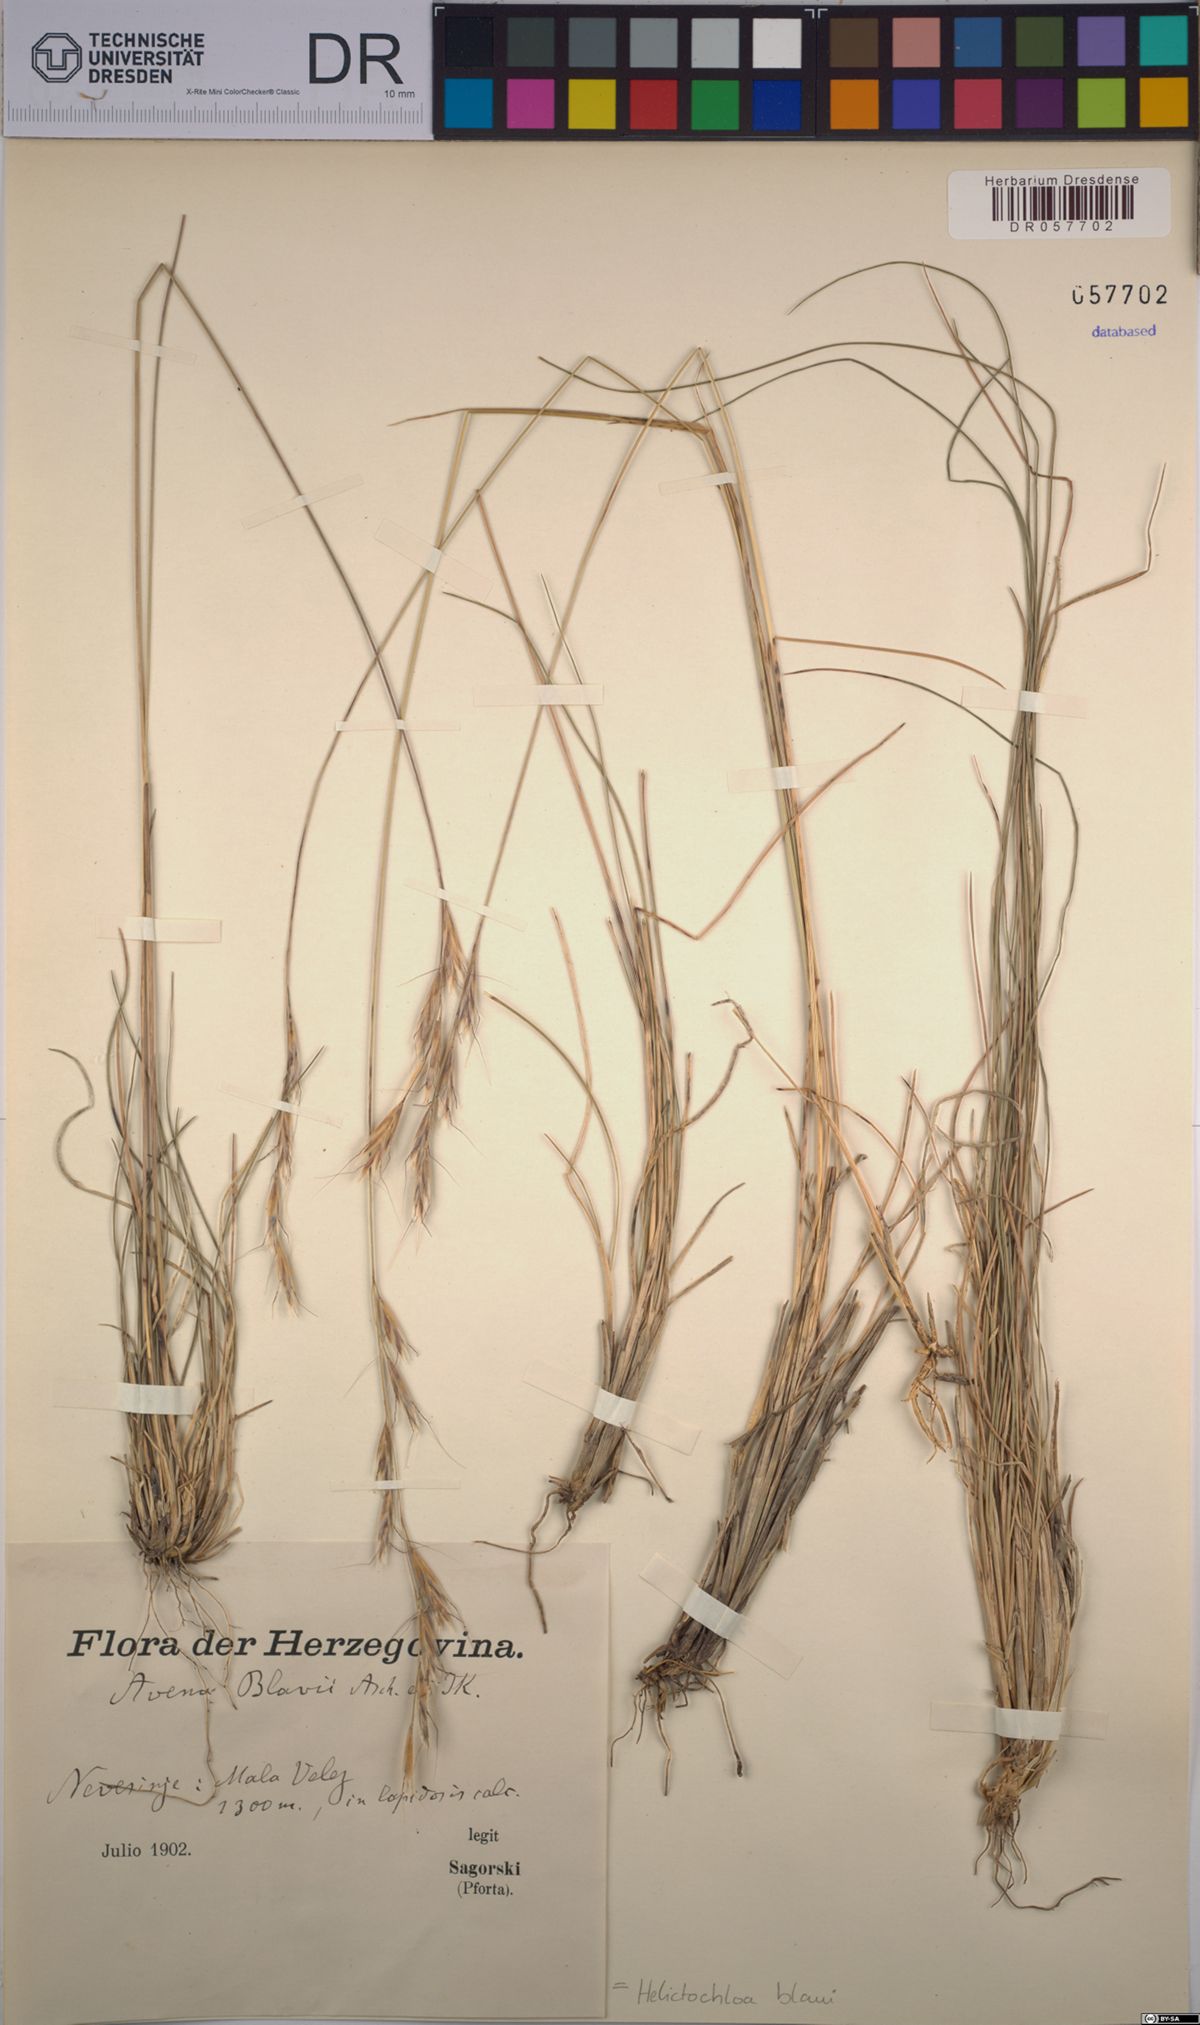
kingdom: Plantae
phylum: Tracheophyta
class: Liliopsida
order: Poales
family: Poaceae
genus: Helictochloa
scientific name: Helictochloa blaui
